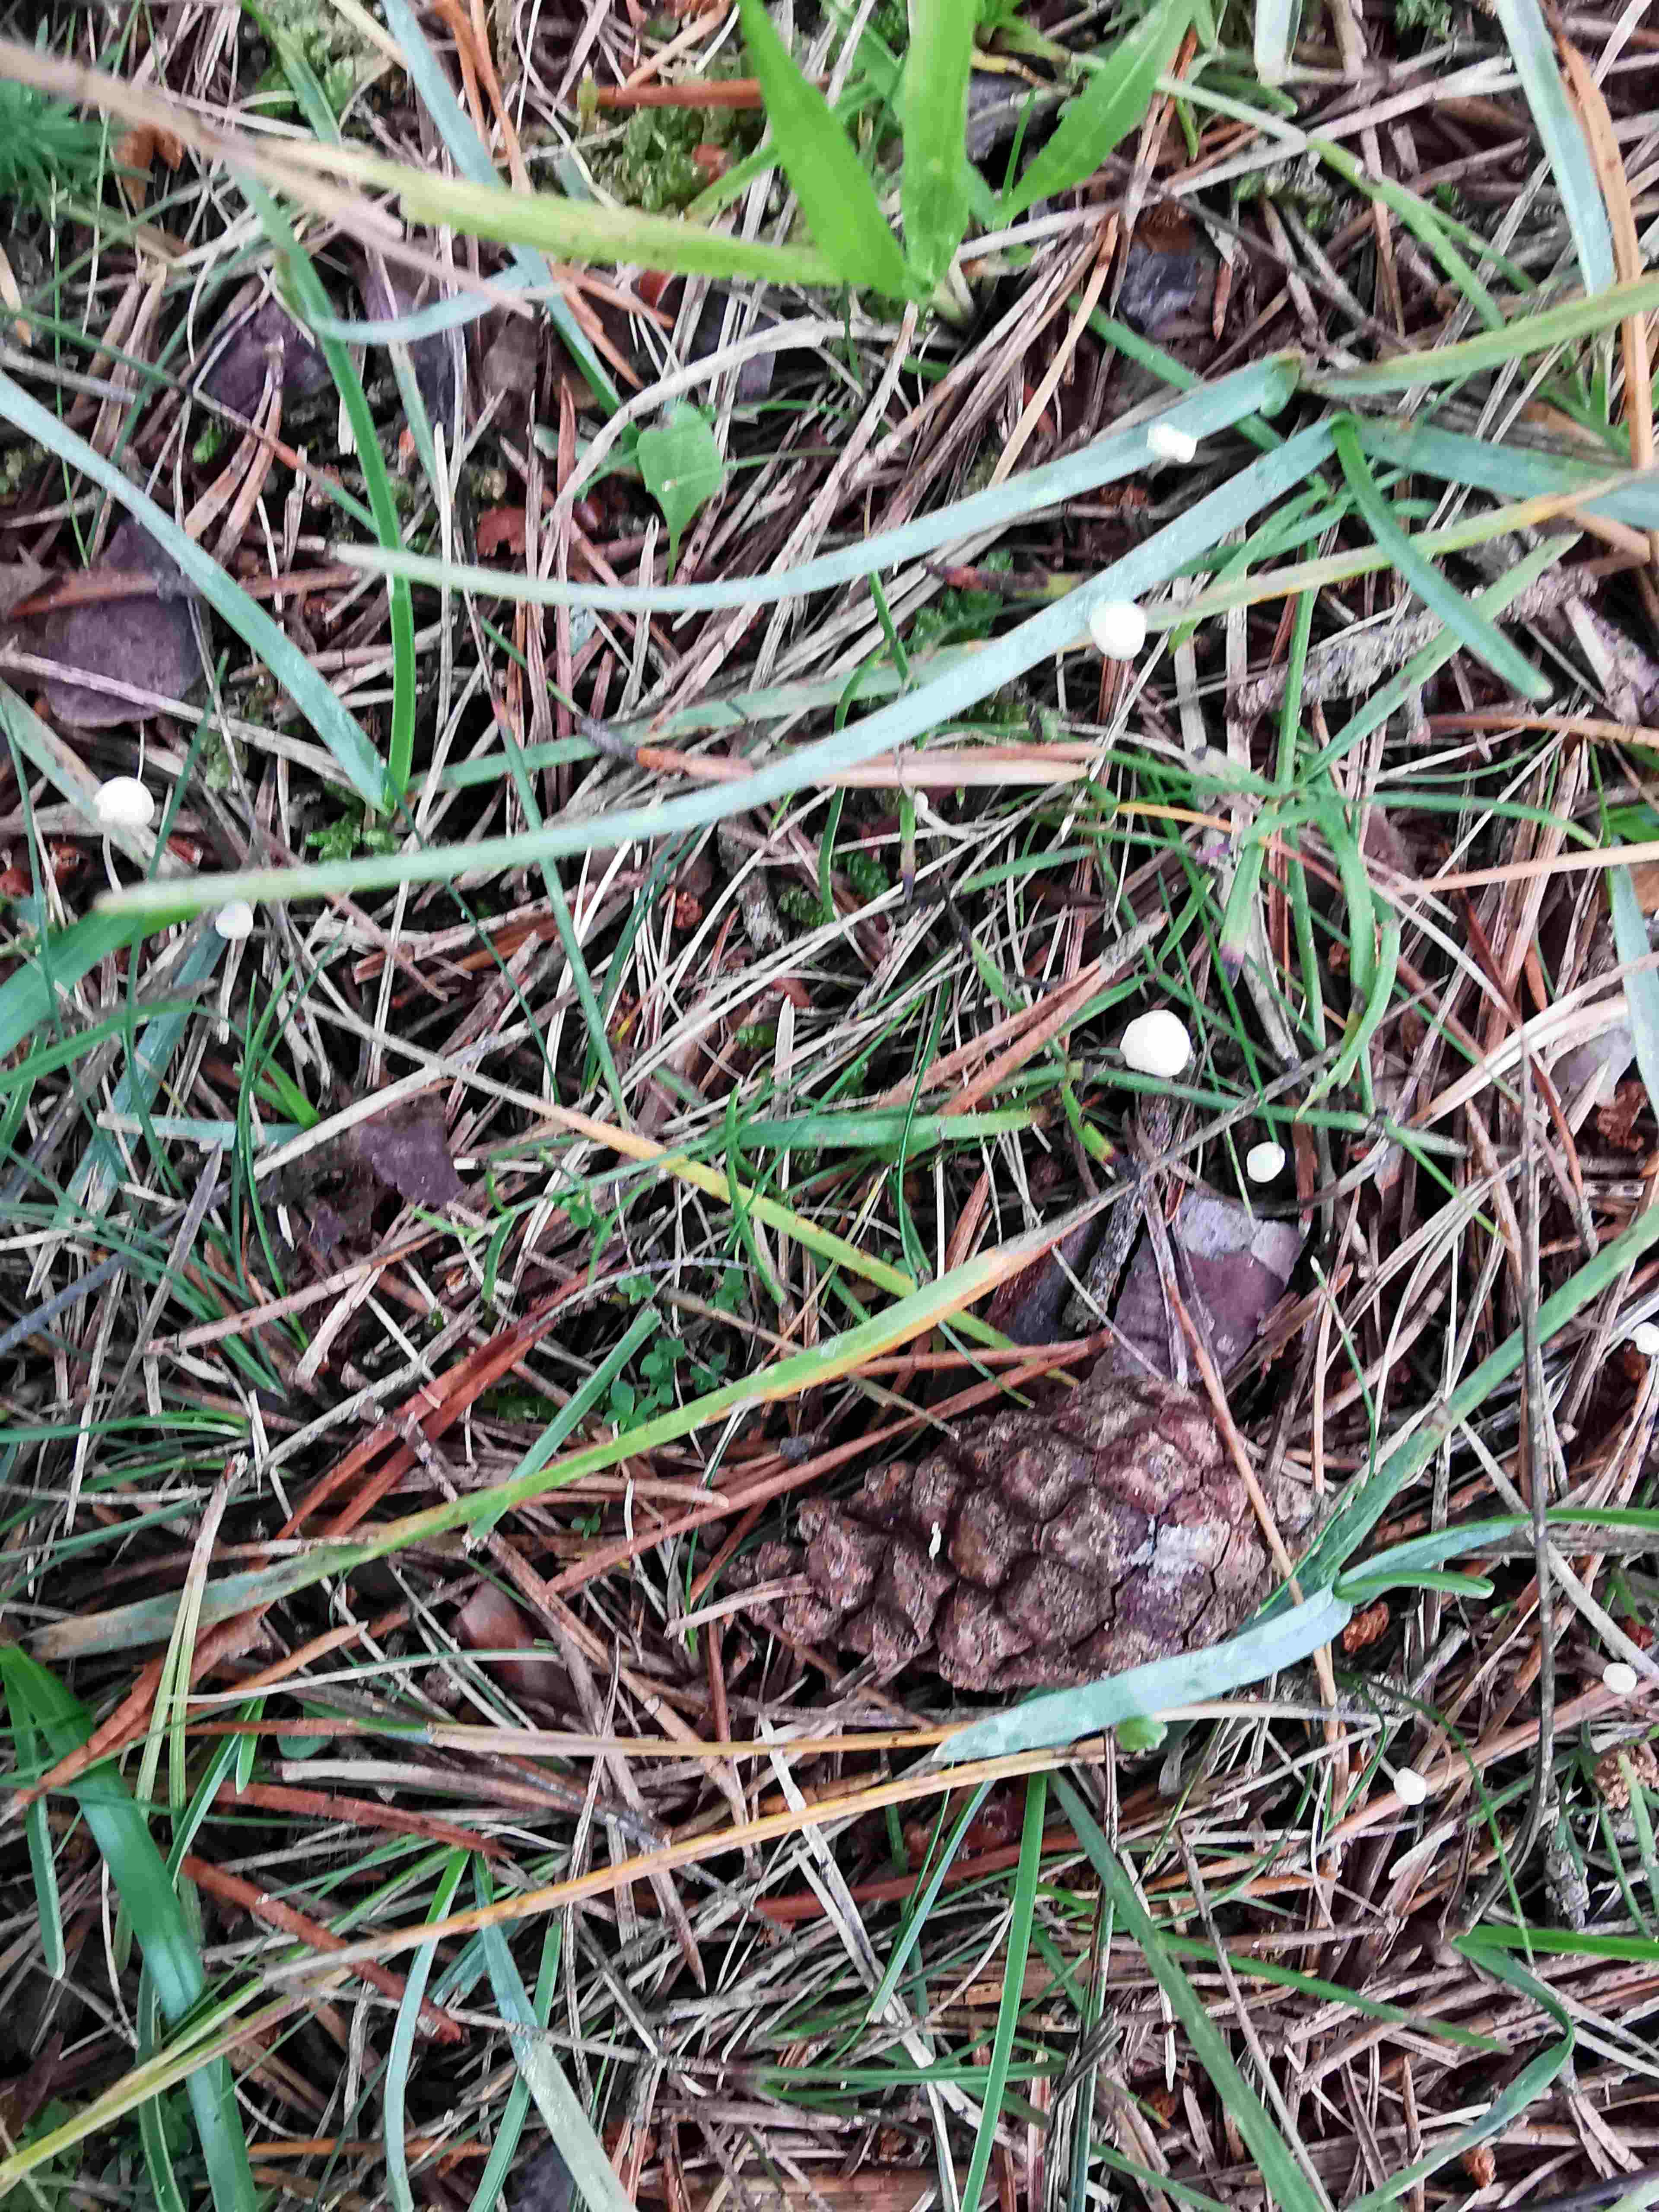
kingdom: Fungi
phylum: Basidiomycota
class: Agaricomycetes
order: Agaricales
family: Mycenaceae
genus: Hemimycena
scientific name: Hemimycena
